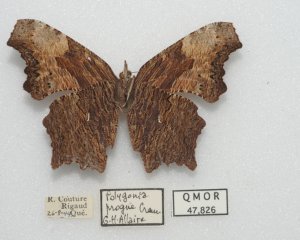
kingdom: Animalia
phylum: Arthropoda
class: Insecta
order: Lepidoptera
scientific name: Lepidoptera
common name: Butterflies
